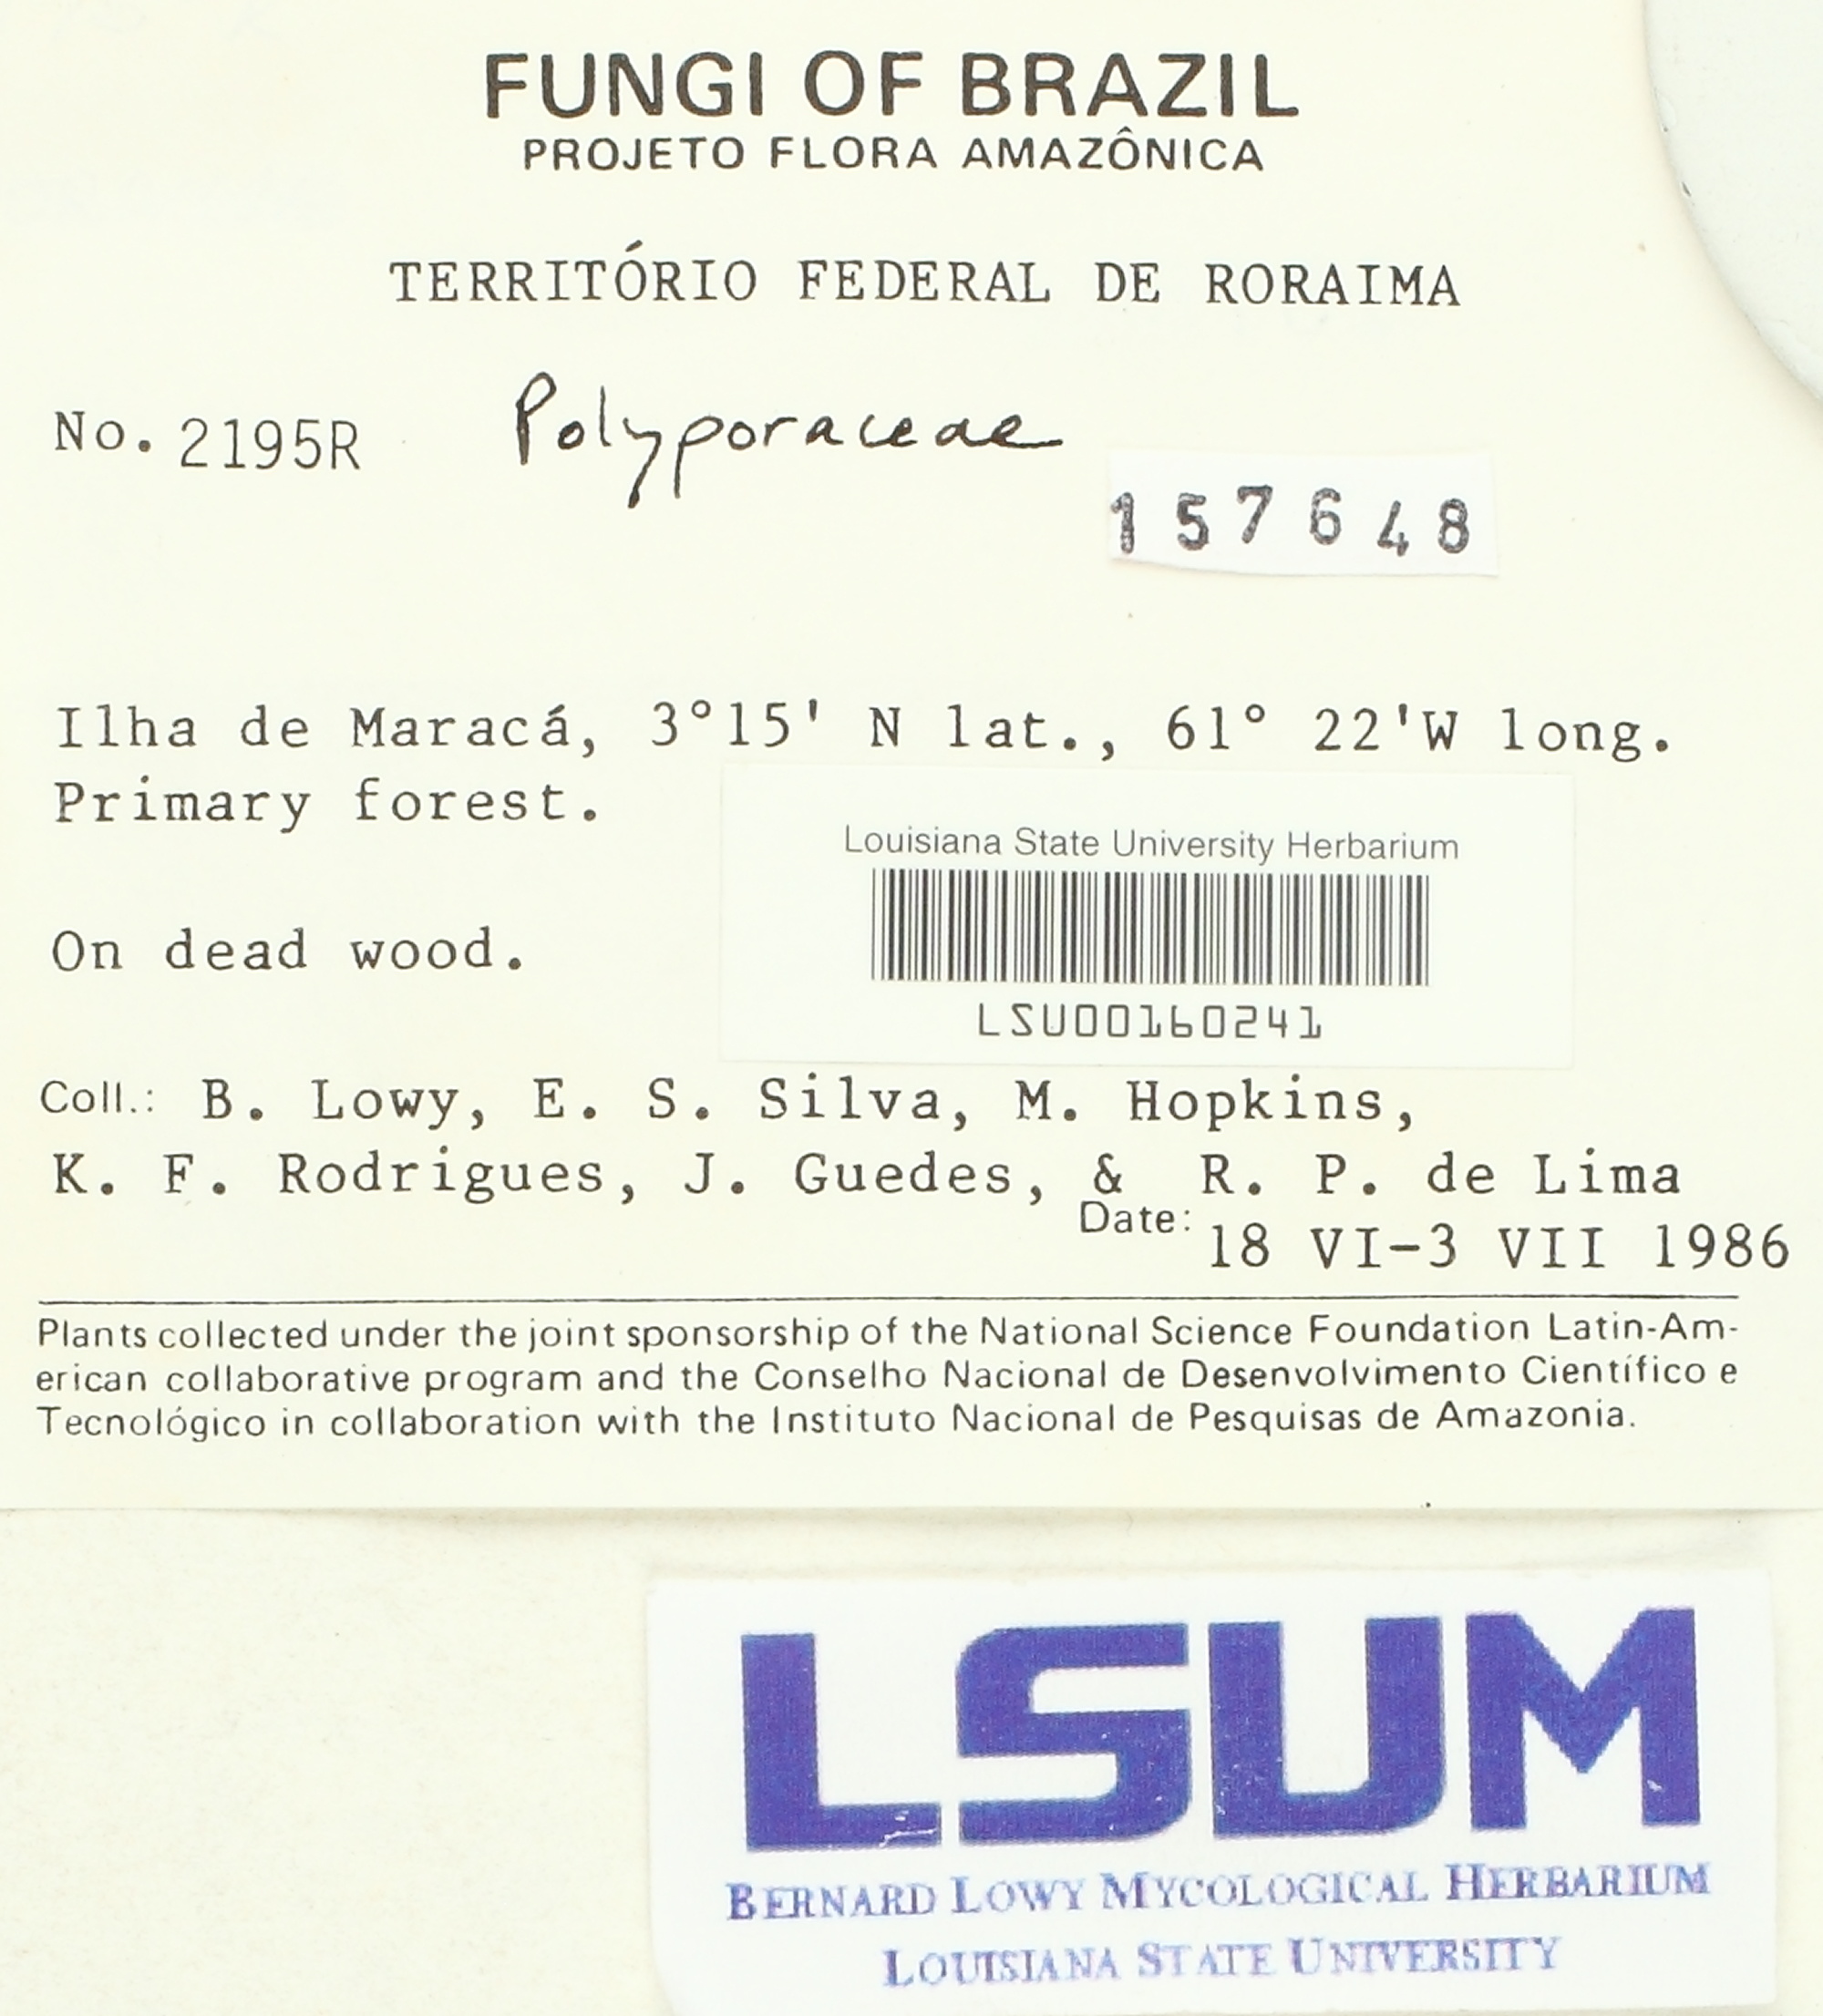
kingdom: Fungi
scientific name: Fungi
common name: Fungi
